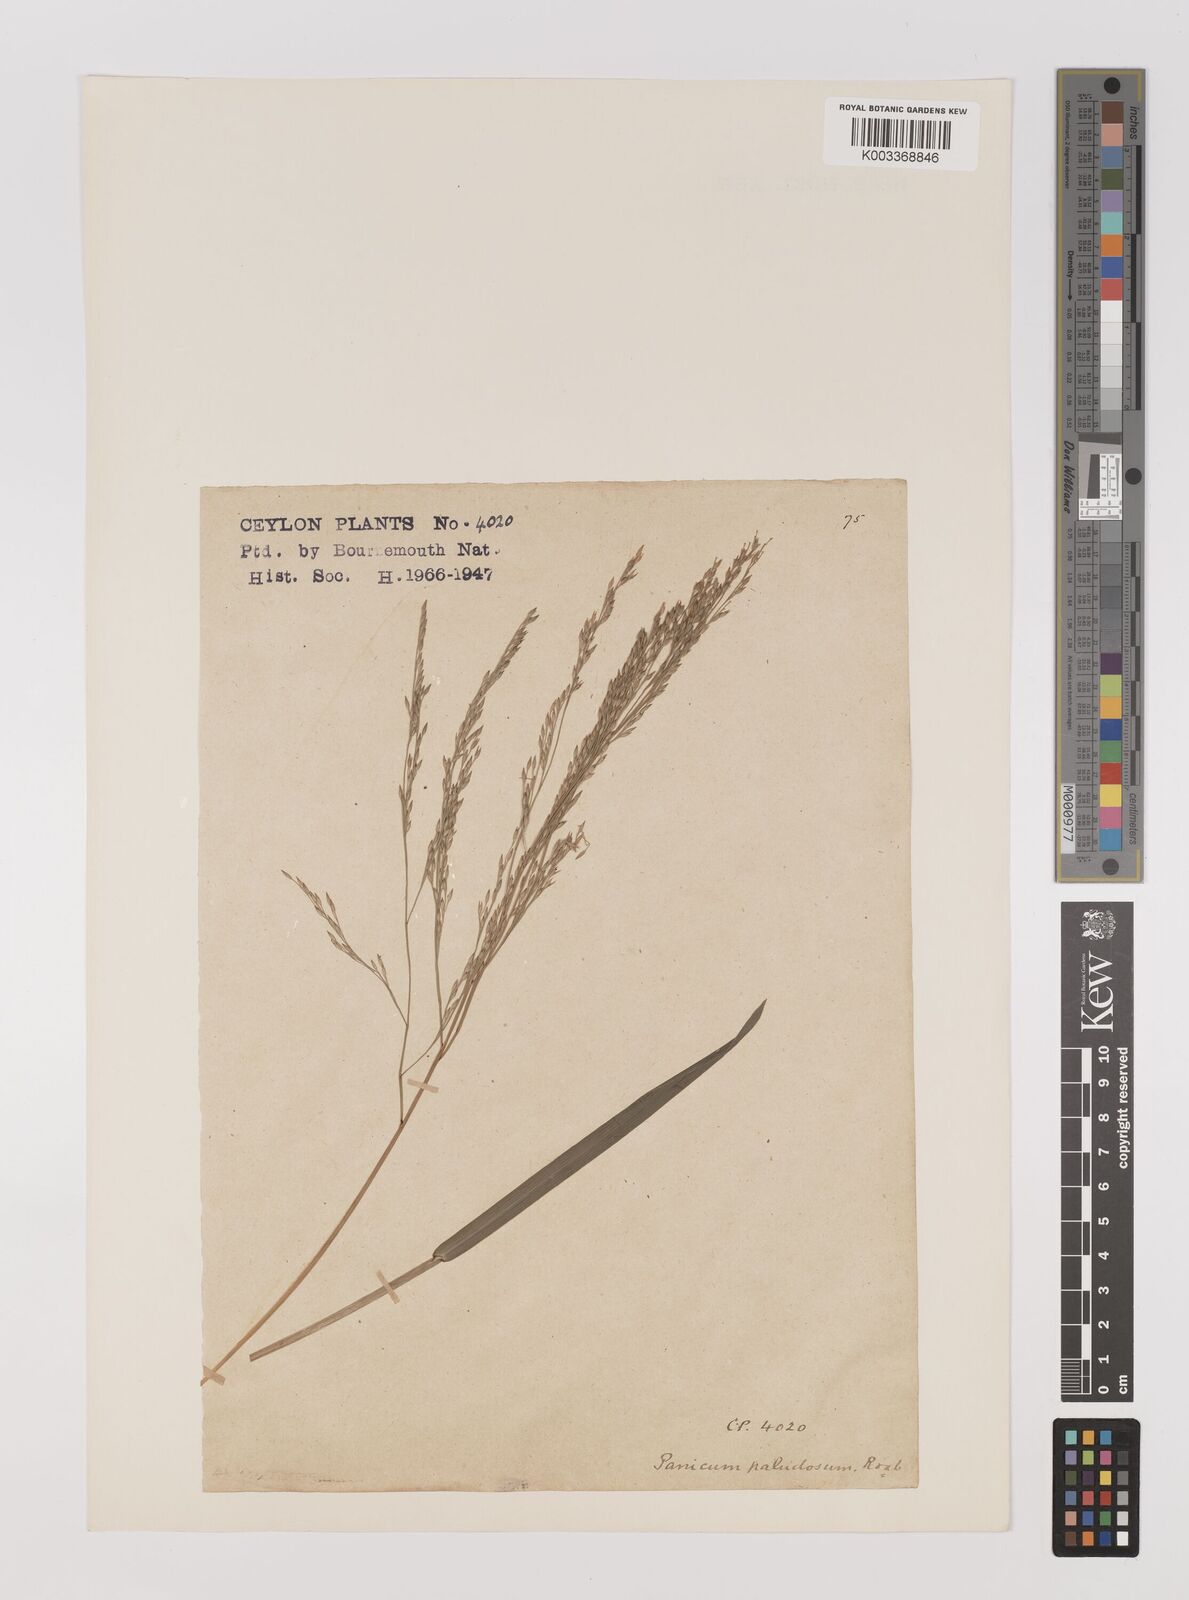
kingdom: Plantae
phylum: Tracheophyta
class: Liliopsida
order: Poales
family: Poaceae
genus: Louisiella
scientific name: Louisiella paludosa
